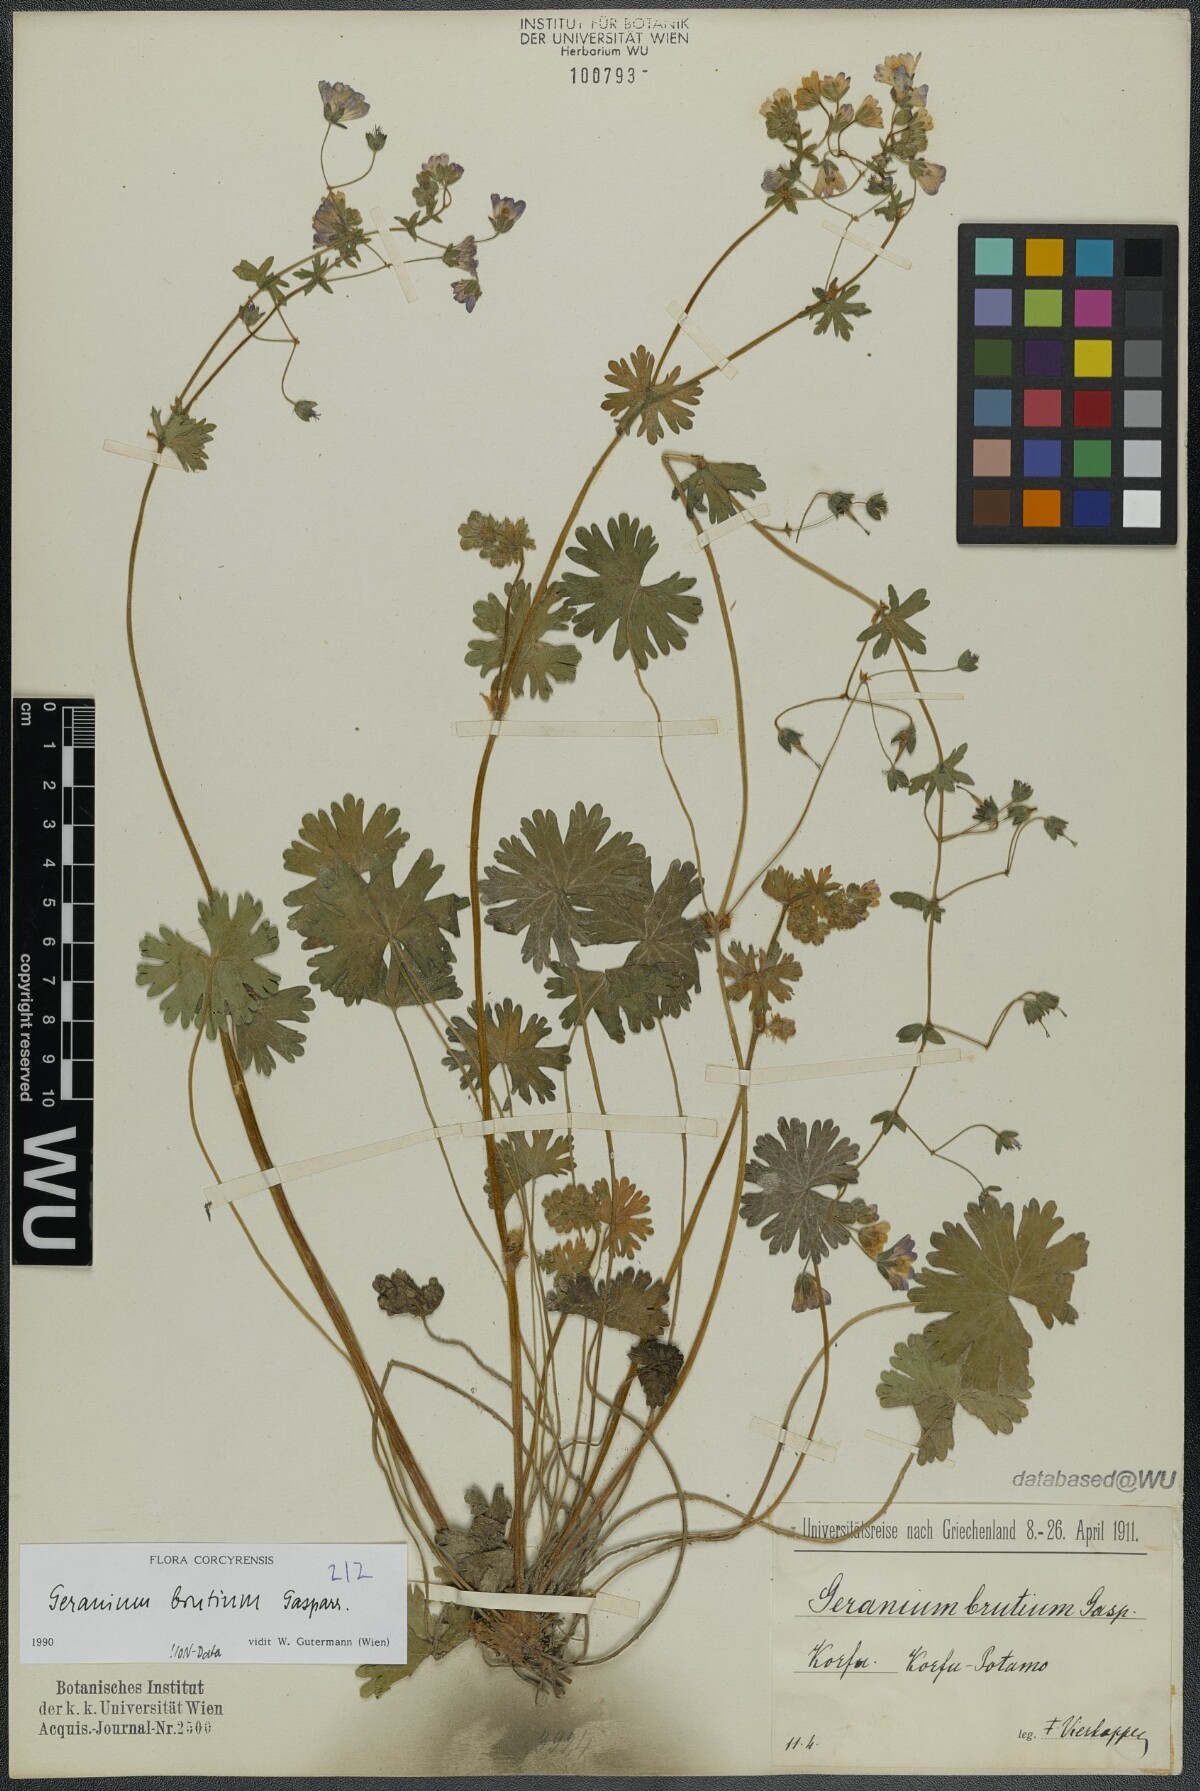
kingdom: Plantae
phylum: Tracheophyta
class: Magnoliopsida
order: Geraniales
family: Geraniaceae
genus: Geranium
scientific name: Geranium molle
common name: Dove's-foot crane's-bill
